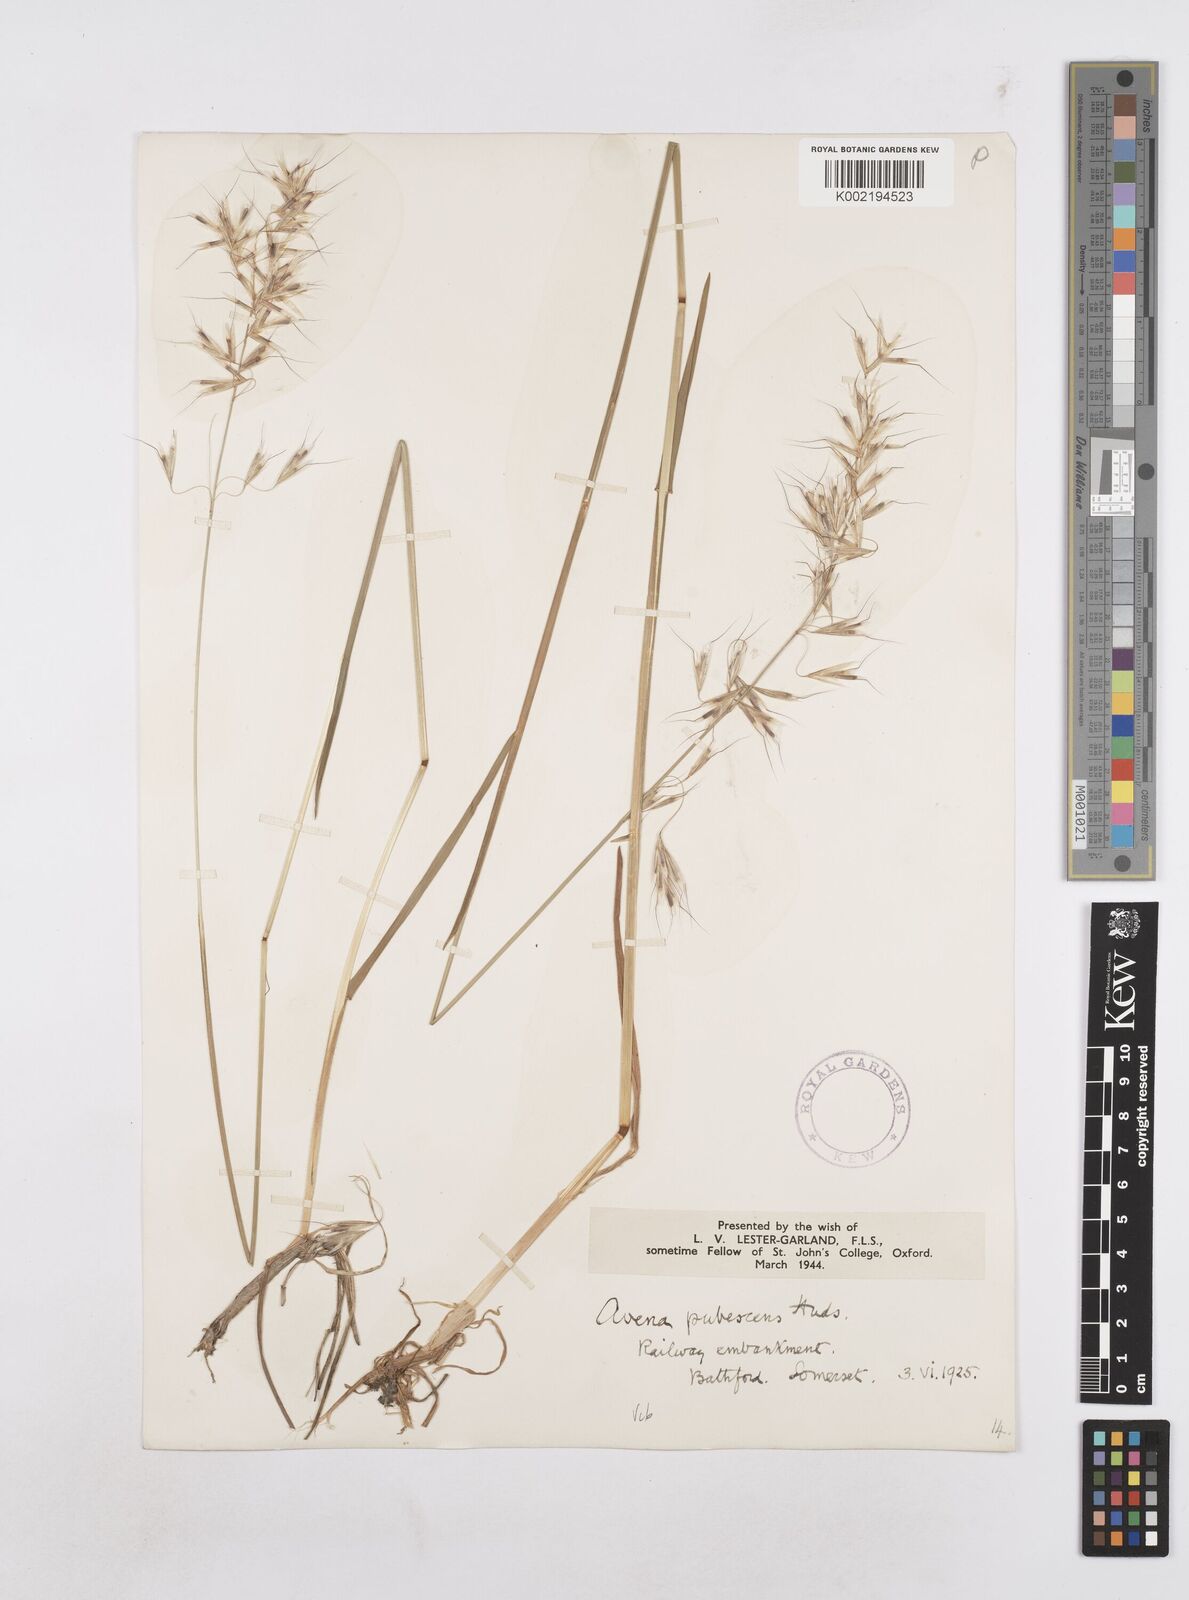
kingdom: Plantae
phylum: Tracheophyta
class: Liliopsida
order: Poales
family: Poaceae
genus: Avenula
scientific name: Avenula pubescens
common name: Downy alpine oatgrass
